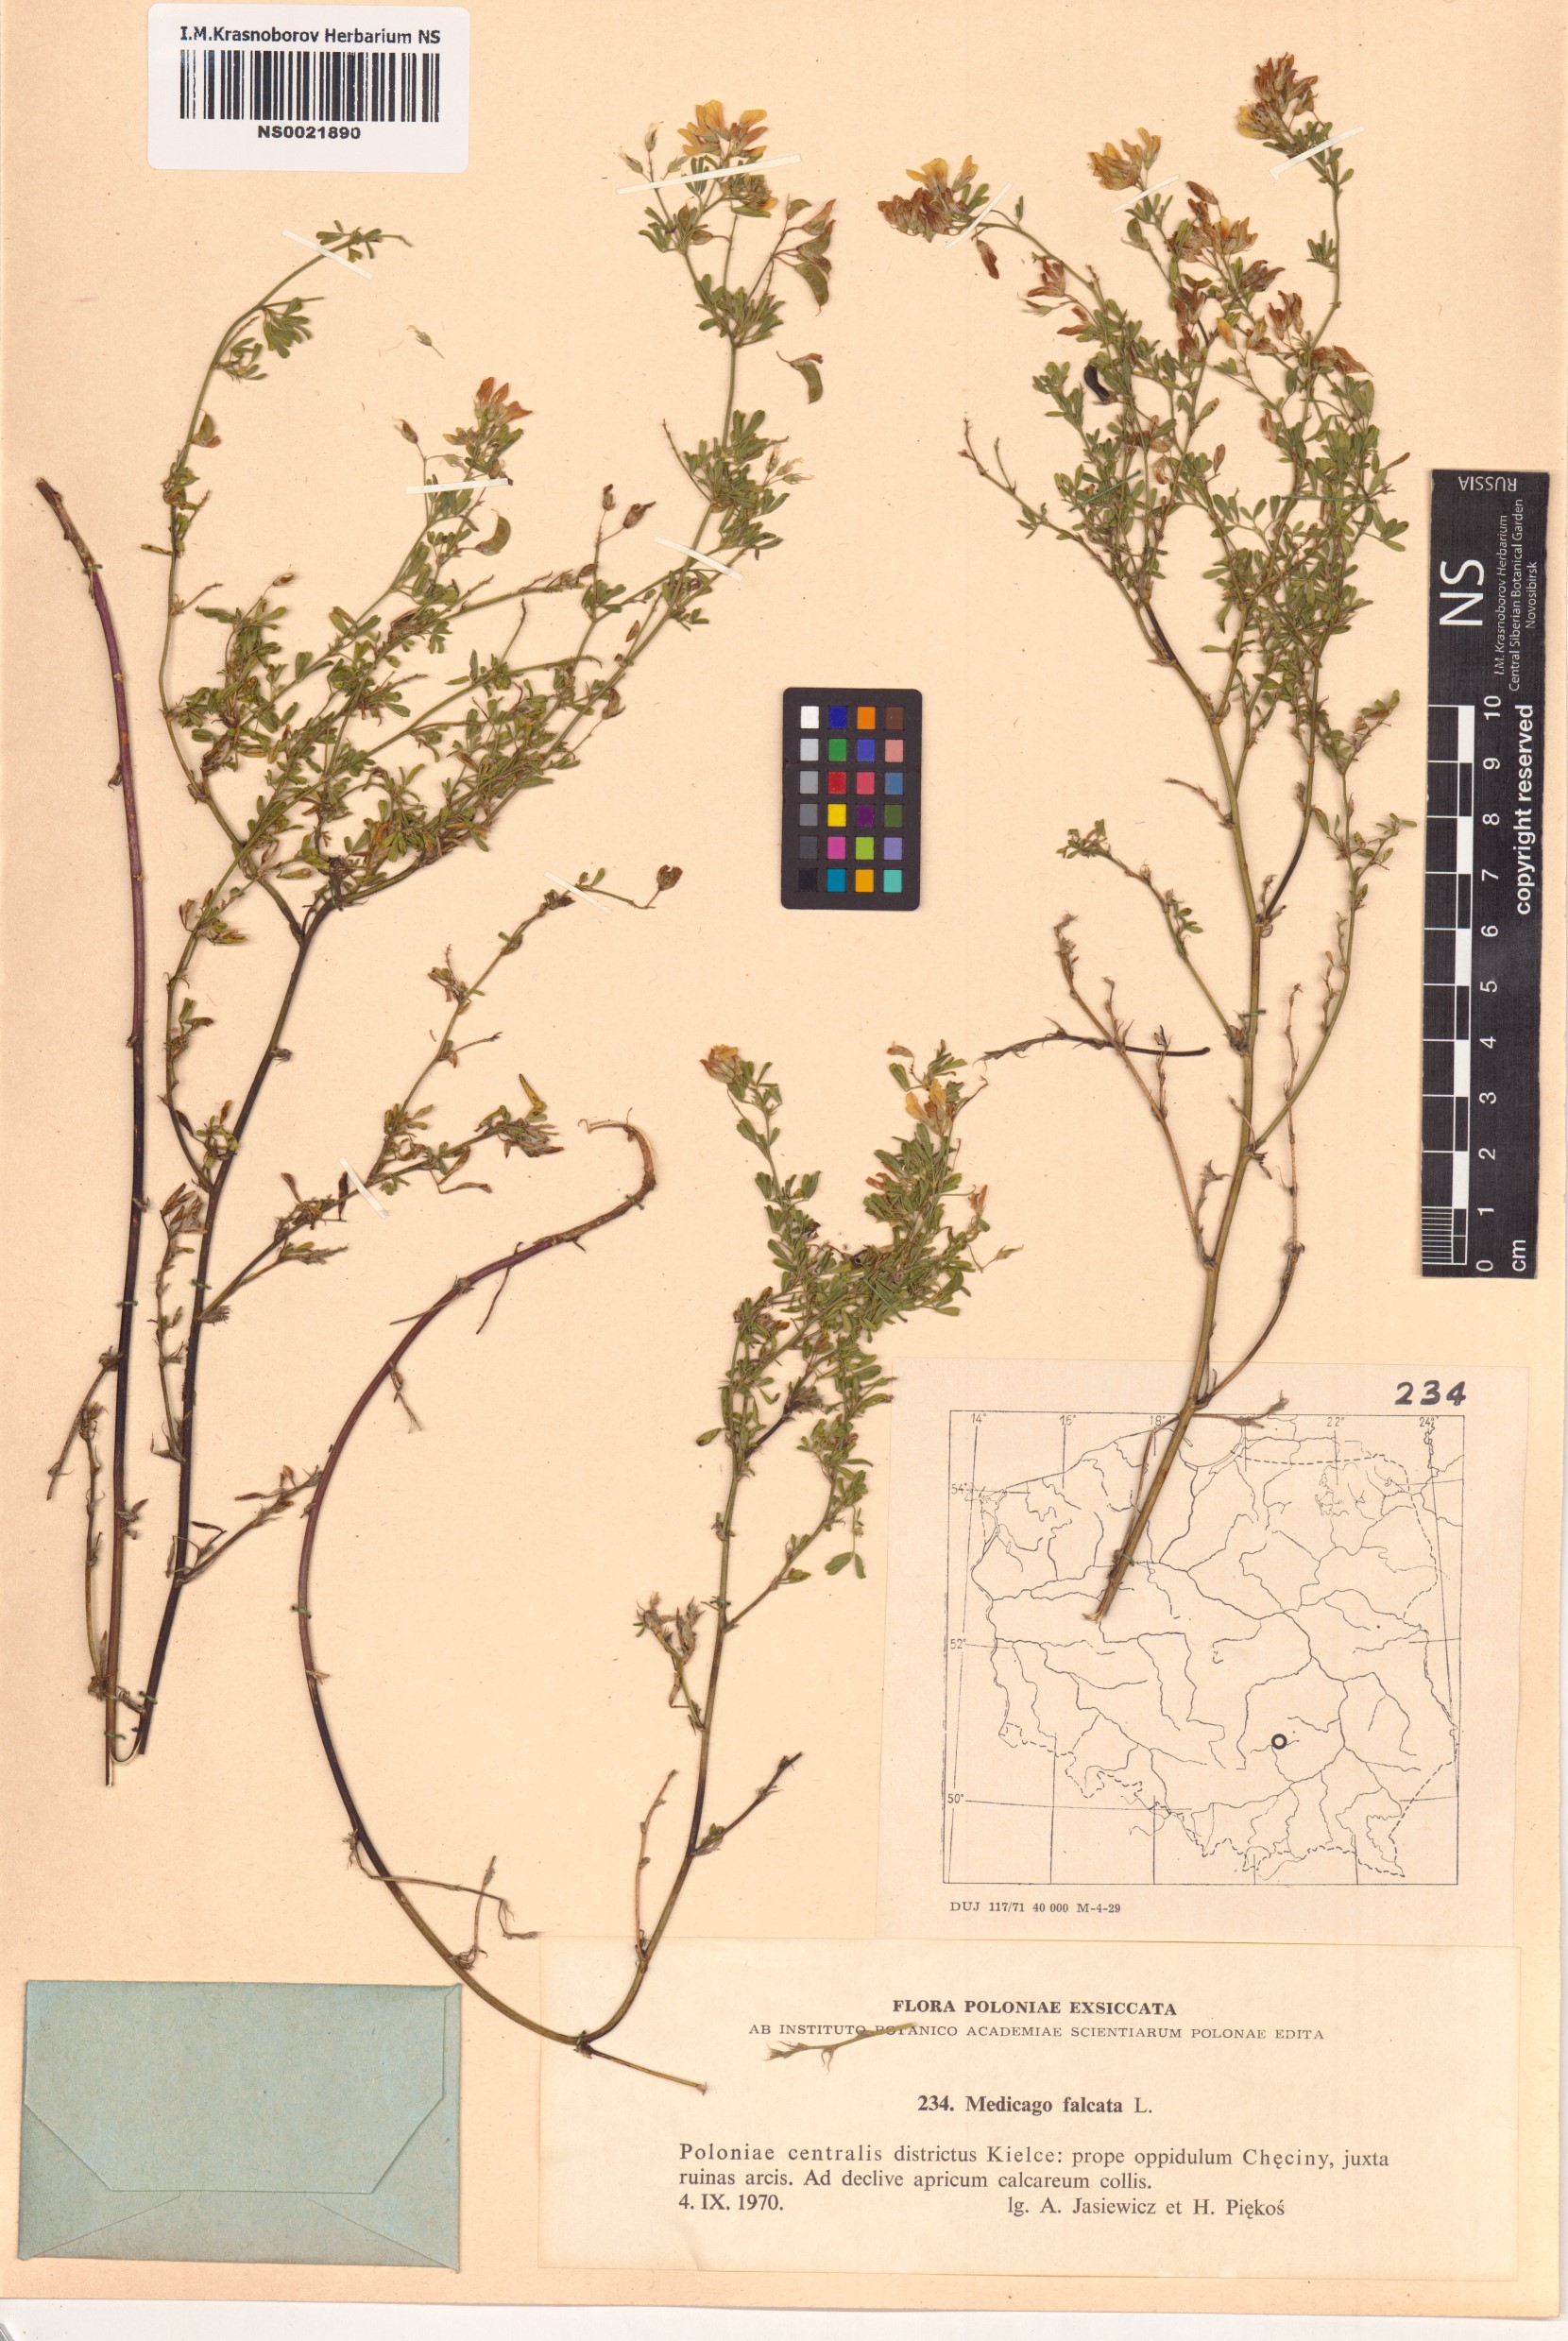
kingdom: Plantae
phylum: Tracheophyta
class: Magnoliopsida
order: Fabales
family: Fabaceae
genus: Medicago
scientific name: Medicago falcata
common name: Sickle medick
